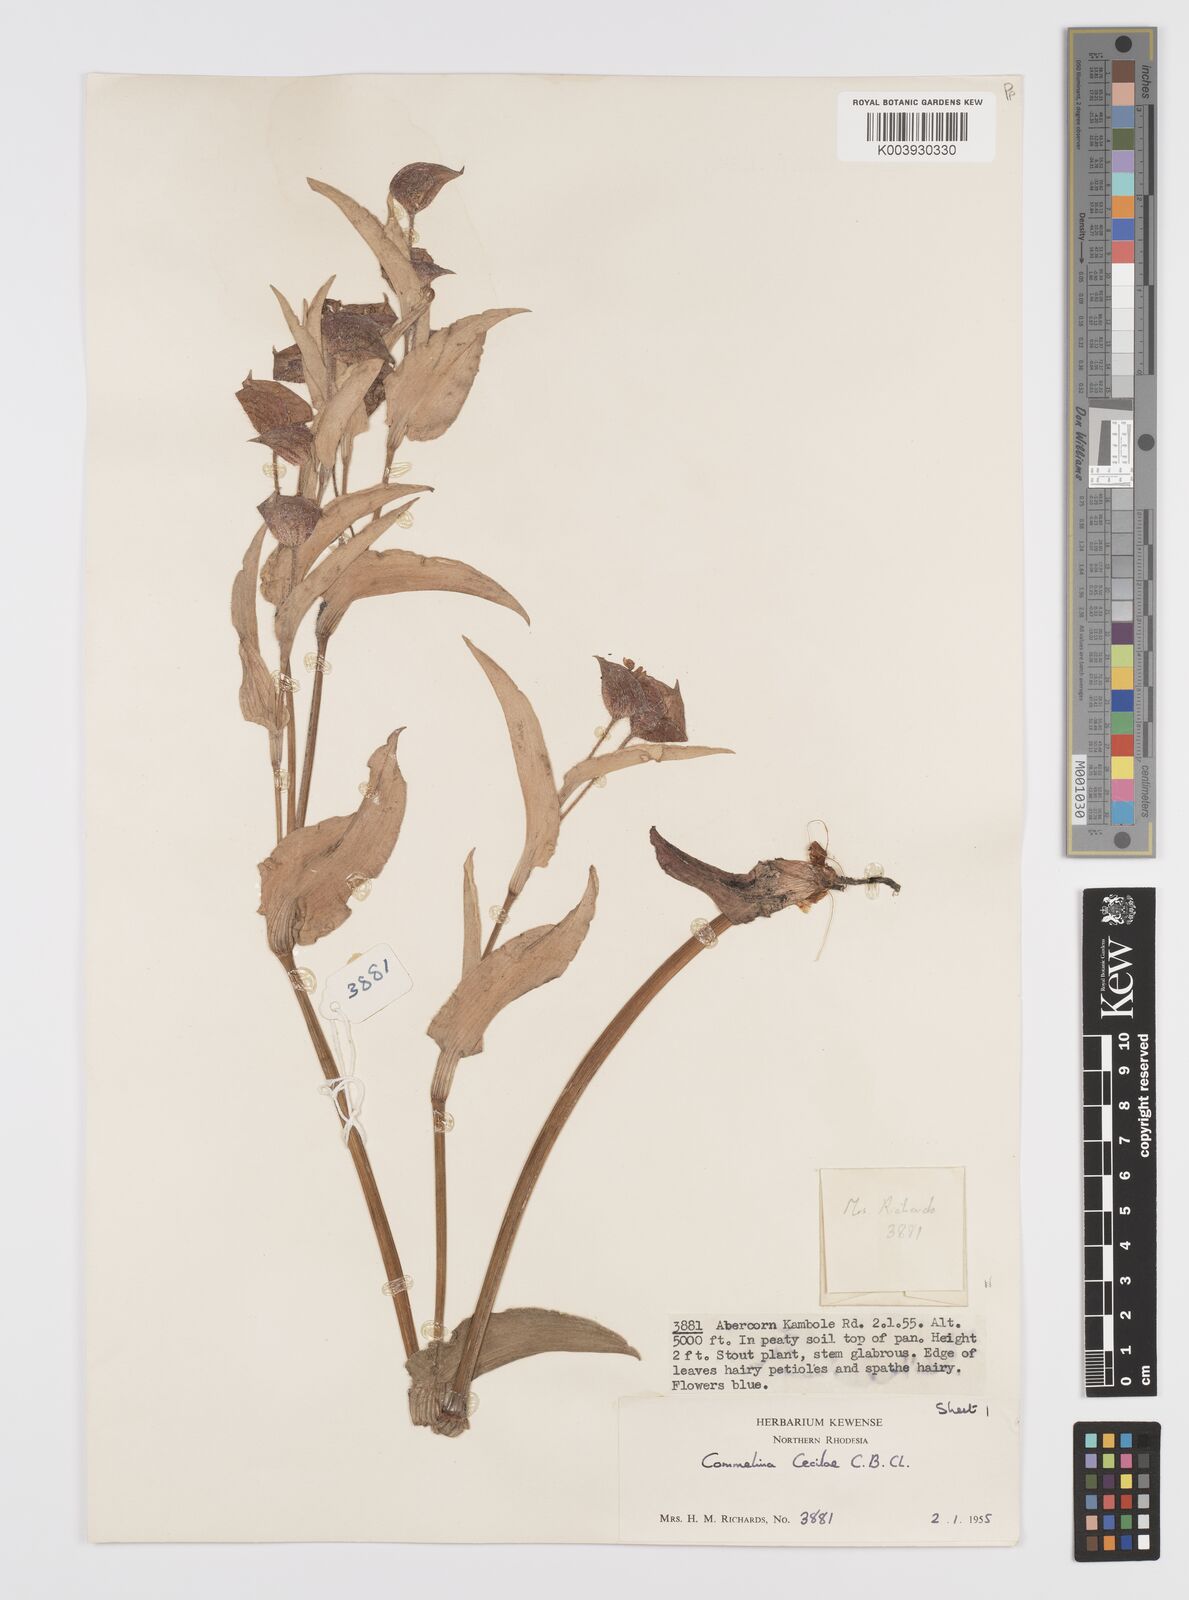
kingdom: Plantae
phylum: Tracheophyta
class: Liliopsida
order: Commelinales
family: Commelinaceae
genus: Commelina
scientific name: Commelina cecilae
